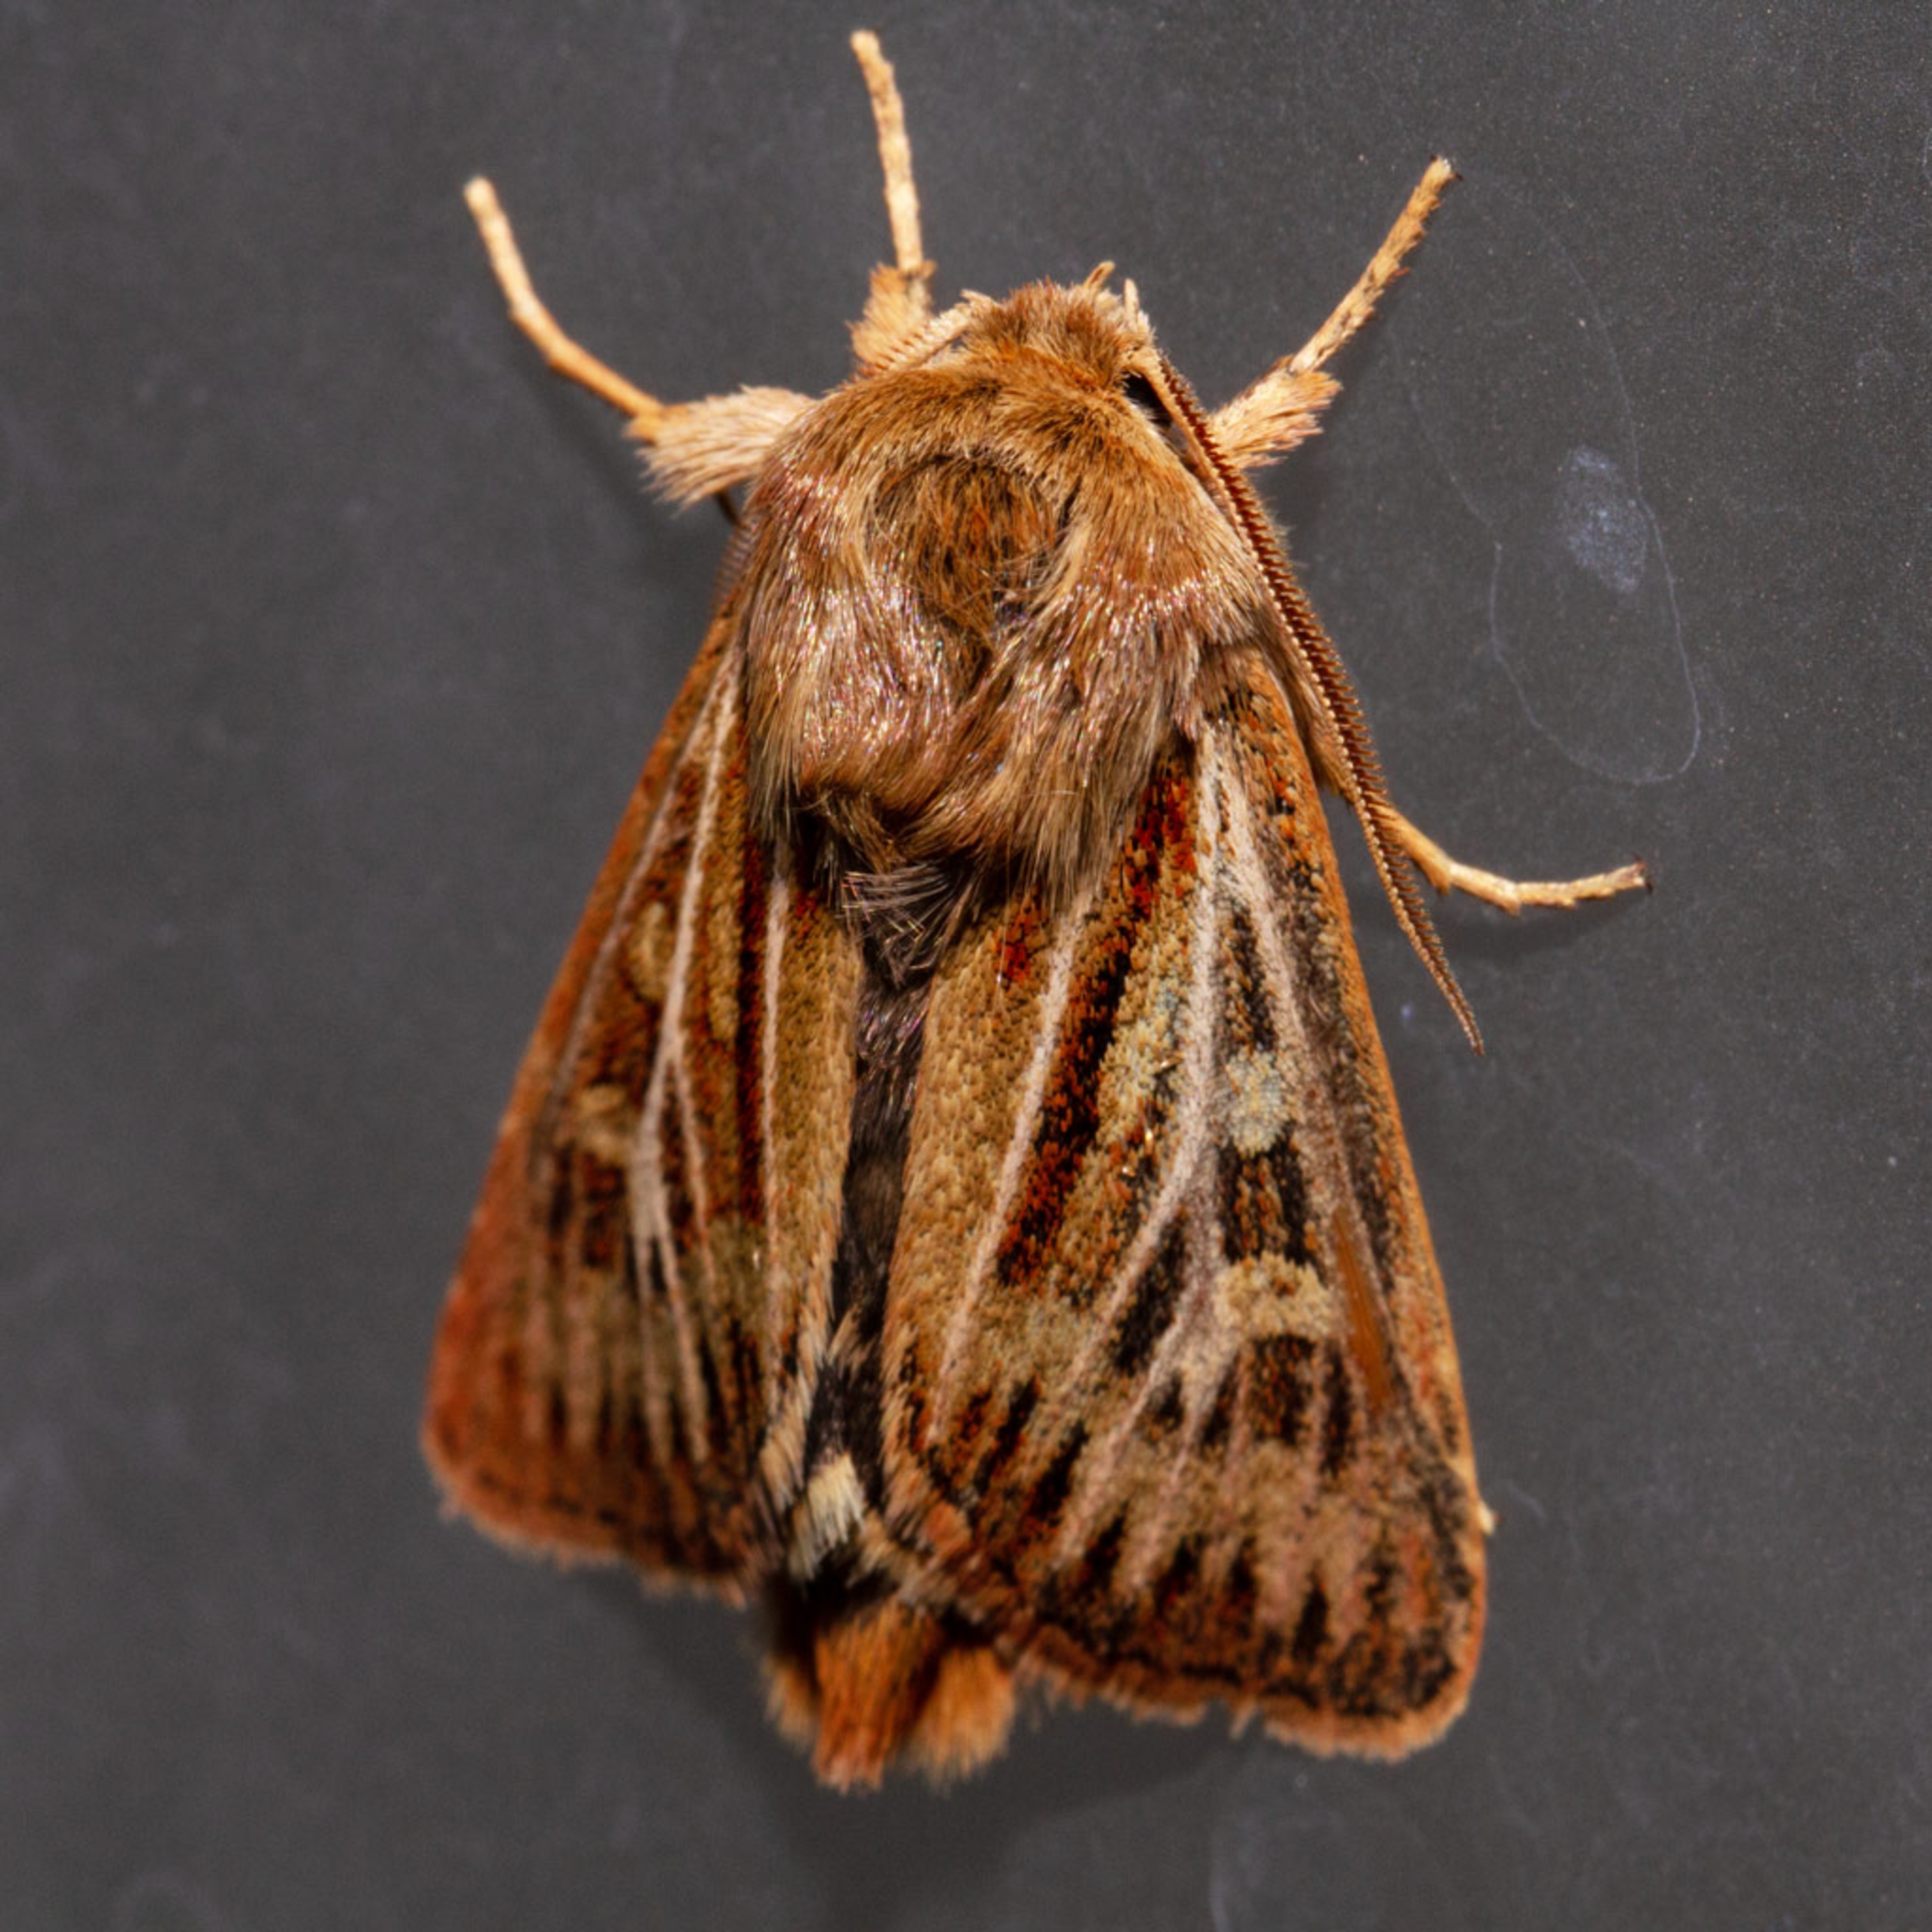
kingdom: Animalia
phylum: Arthropoda
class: Insecta
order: Lepidoptera
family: Noctuidae
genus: Cerapteryx
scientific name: Cerapteryx graminis
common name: Mosebunkeugle
